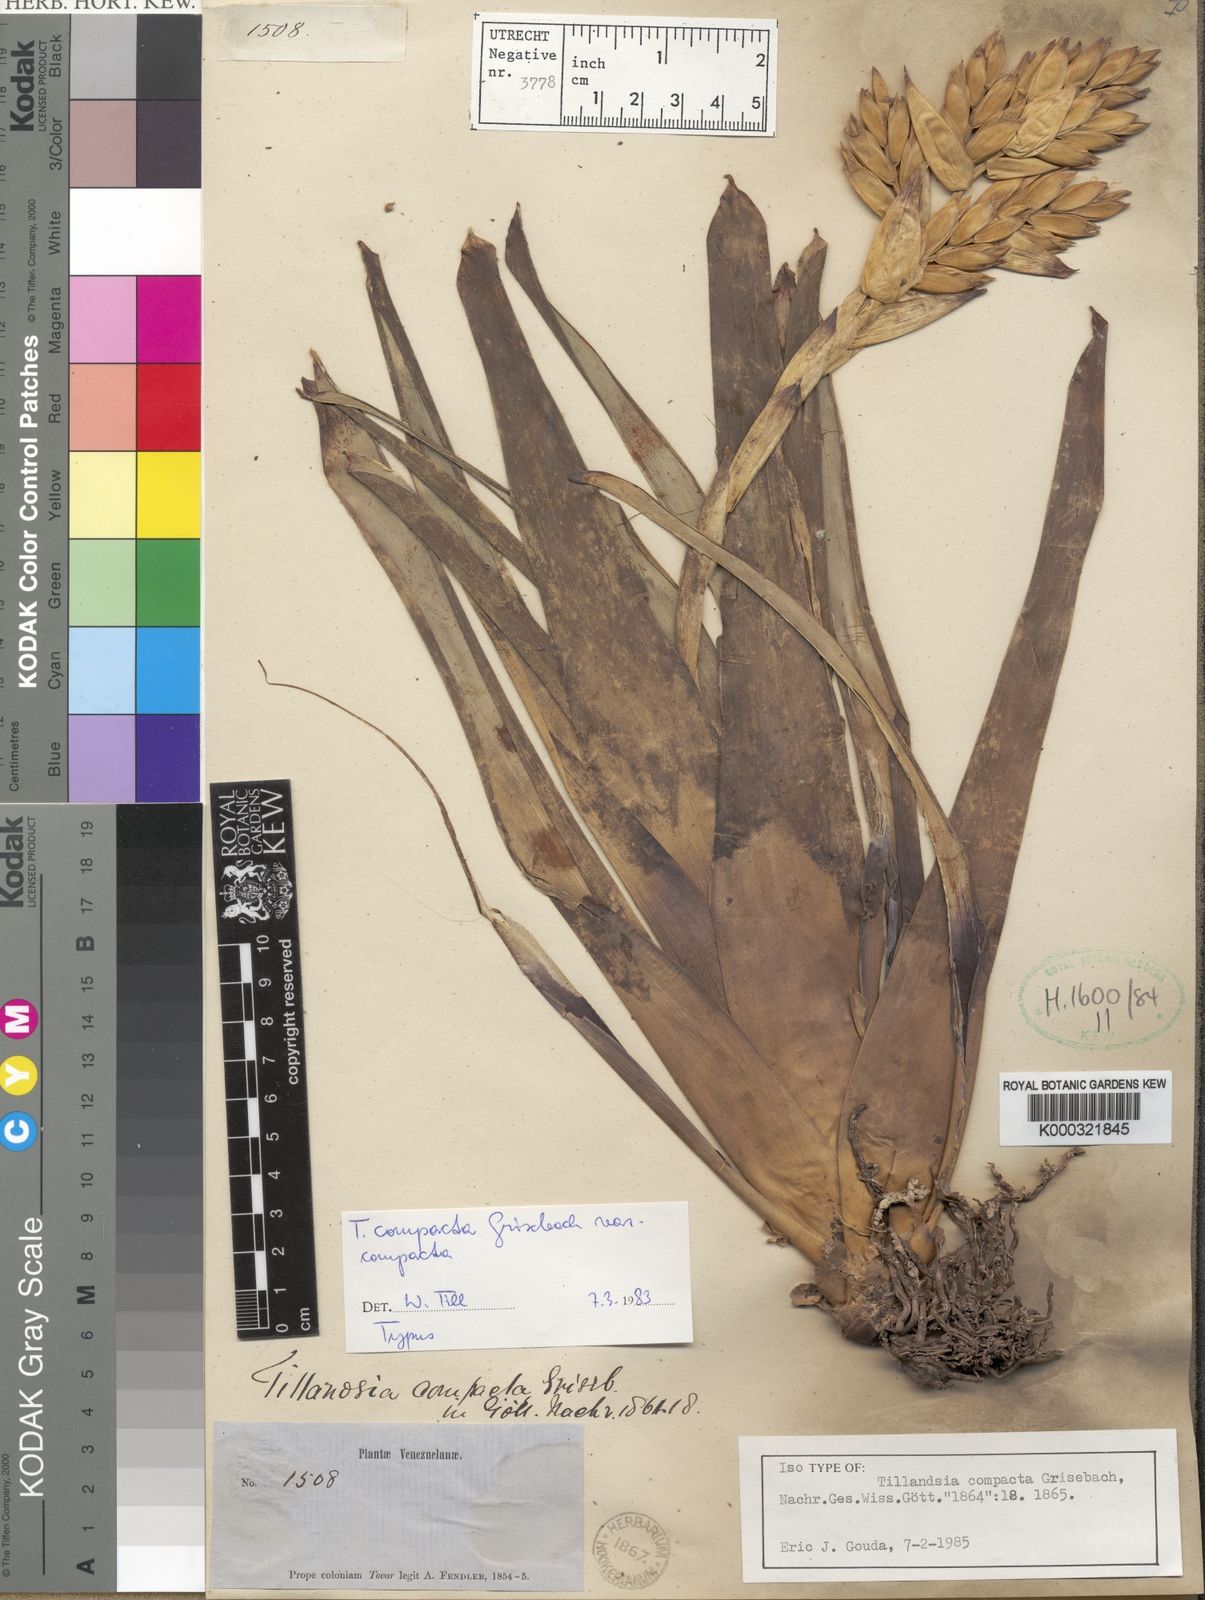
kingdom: Plantae
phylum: Tracheophyta
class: Liliopsida
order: Poales
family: Bromeliaceae
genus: Tillandsia
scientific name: Tillandsia compacta
